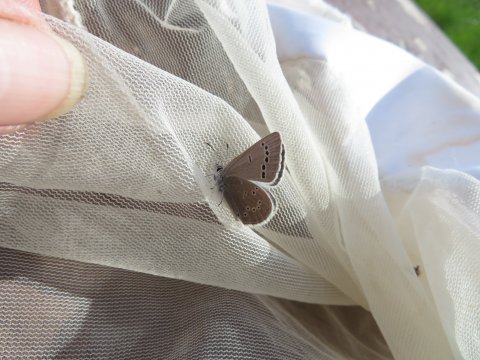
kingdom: Animalia
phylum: Arthropoda
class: Insecta
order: Lepidoptera
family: Lycaenidae
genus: Glaucopsyche
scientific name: Glaucopsyche lygdamus
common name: Silvery Blue
